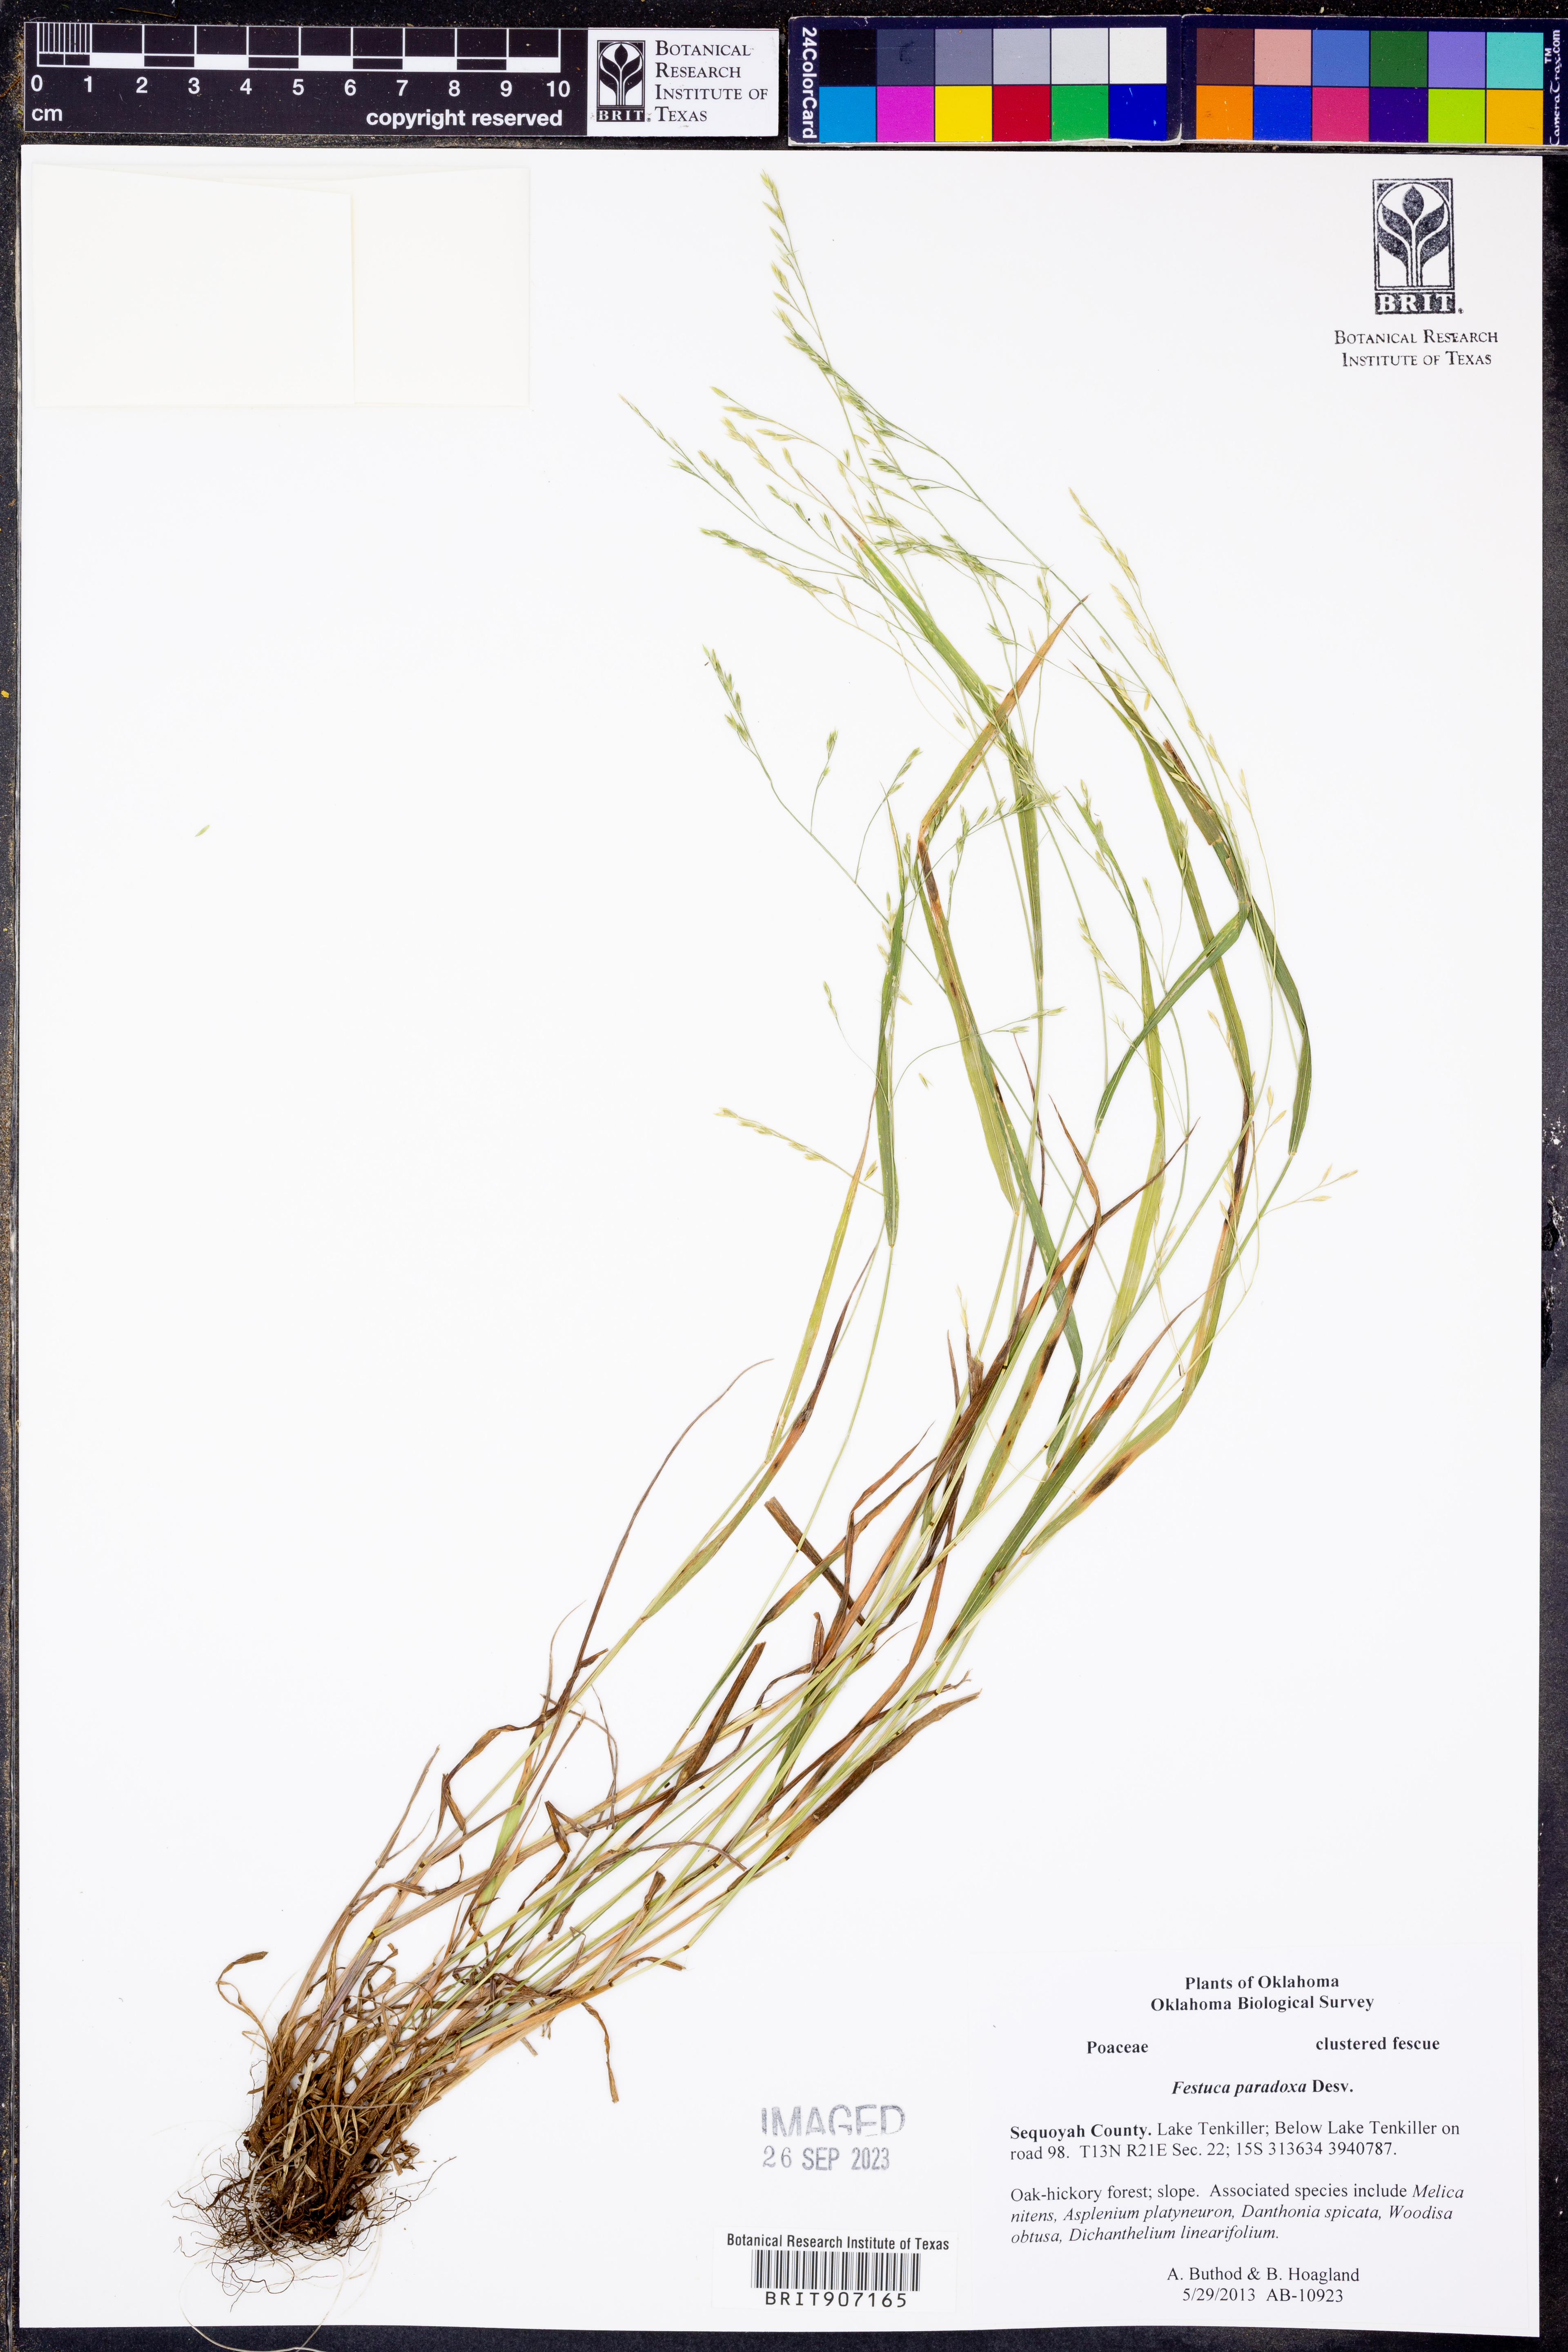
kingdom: Plantae
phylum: Tracheophyta
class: Liliopsida
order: Poales
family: Poaceae
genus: Festuca
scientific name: Festuca paradoxa
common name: Cluster fescue
